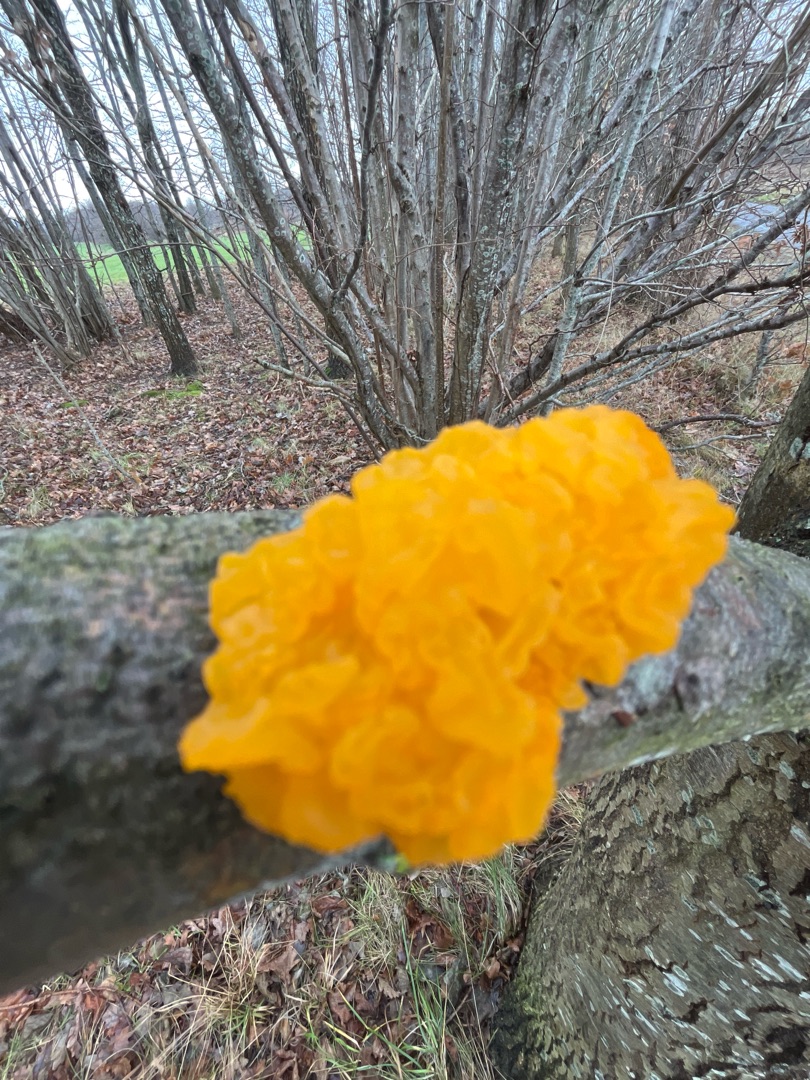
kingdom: Fungi
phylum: Basidiomycota
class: Tremellomycetes
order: Tremellales
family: Tremellaceae
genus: Tremella
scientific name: Tremella mesenterica
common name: Gul bævresvamp
